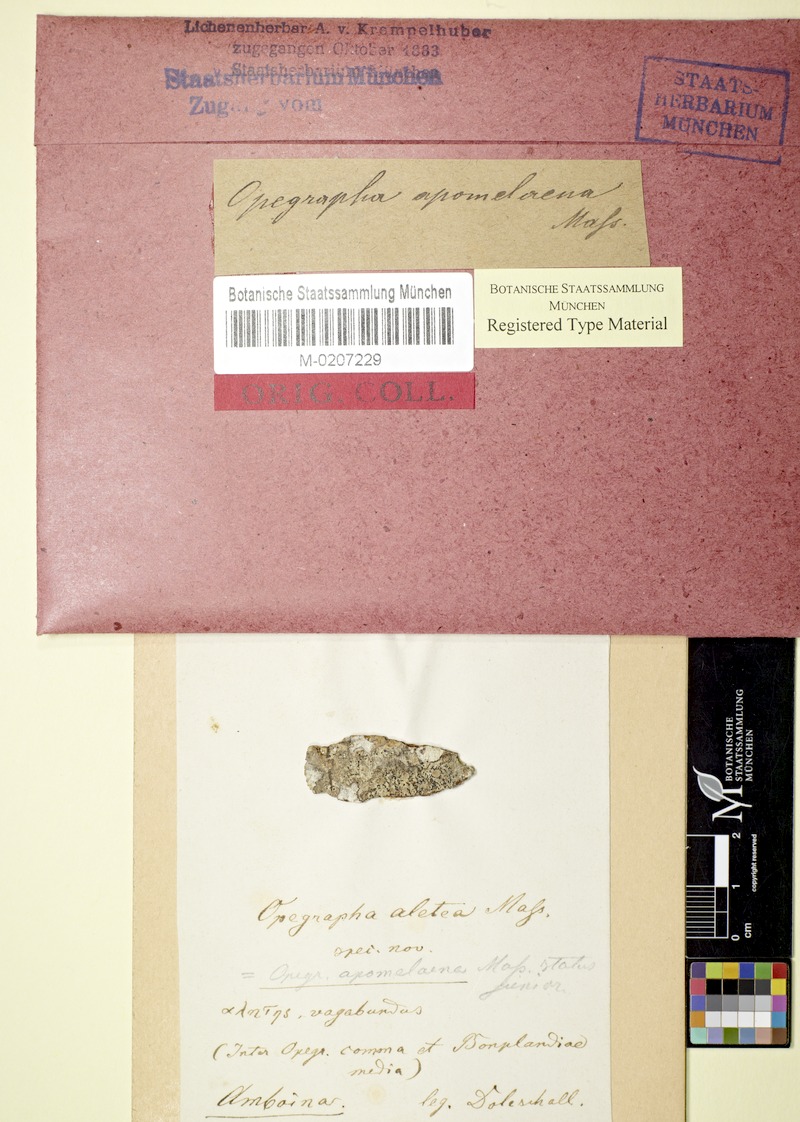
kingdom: Fungi
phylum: Ascomycota
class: Arthoniomycetes
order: Arthoniales
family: Lecanographaceae
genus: Alyxoria
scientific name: Alyxoria apomelaena
